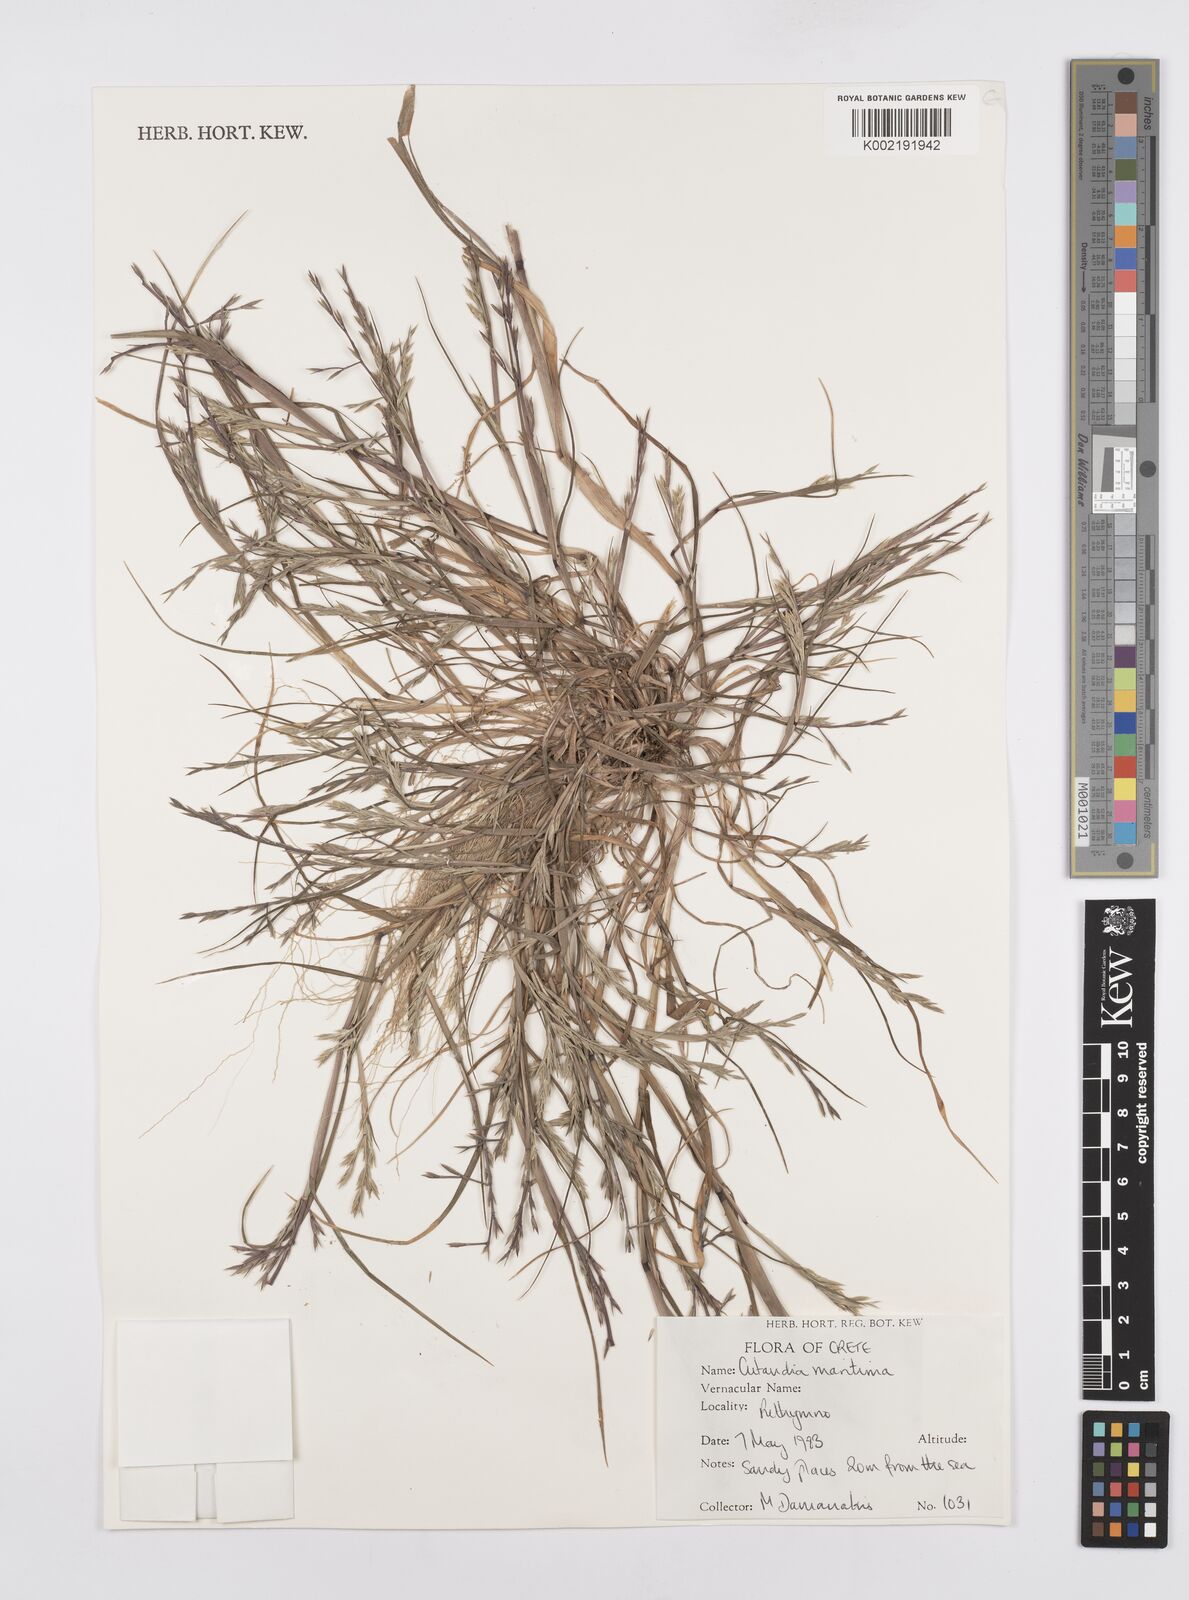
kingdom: Plantae
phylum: Tracheophyta
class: Liliopsida
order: Poales
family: Poaceae
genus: Cutandia
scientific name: Cutandia maritima
